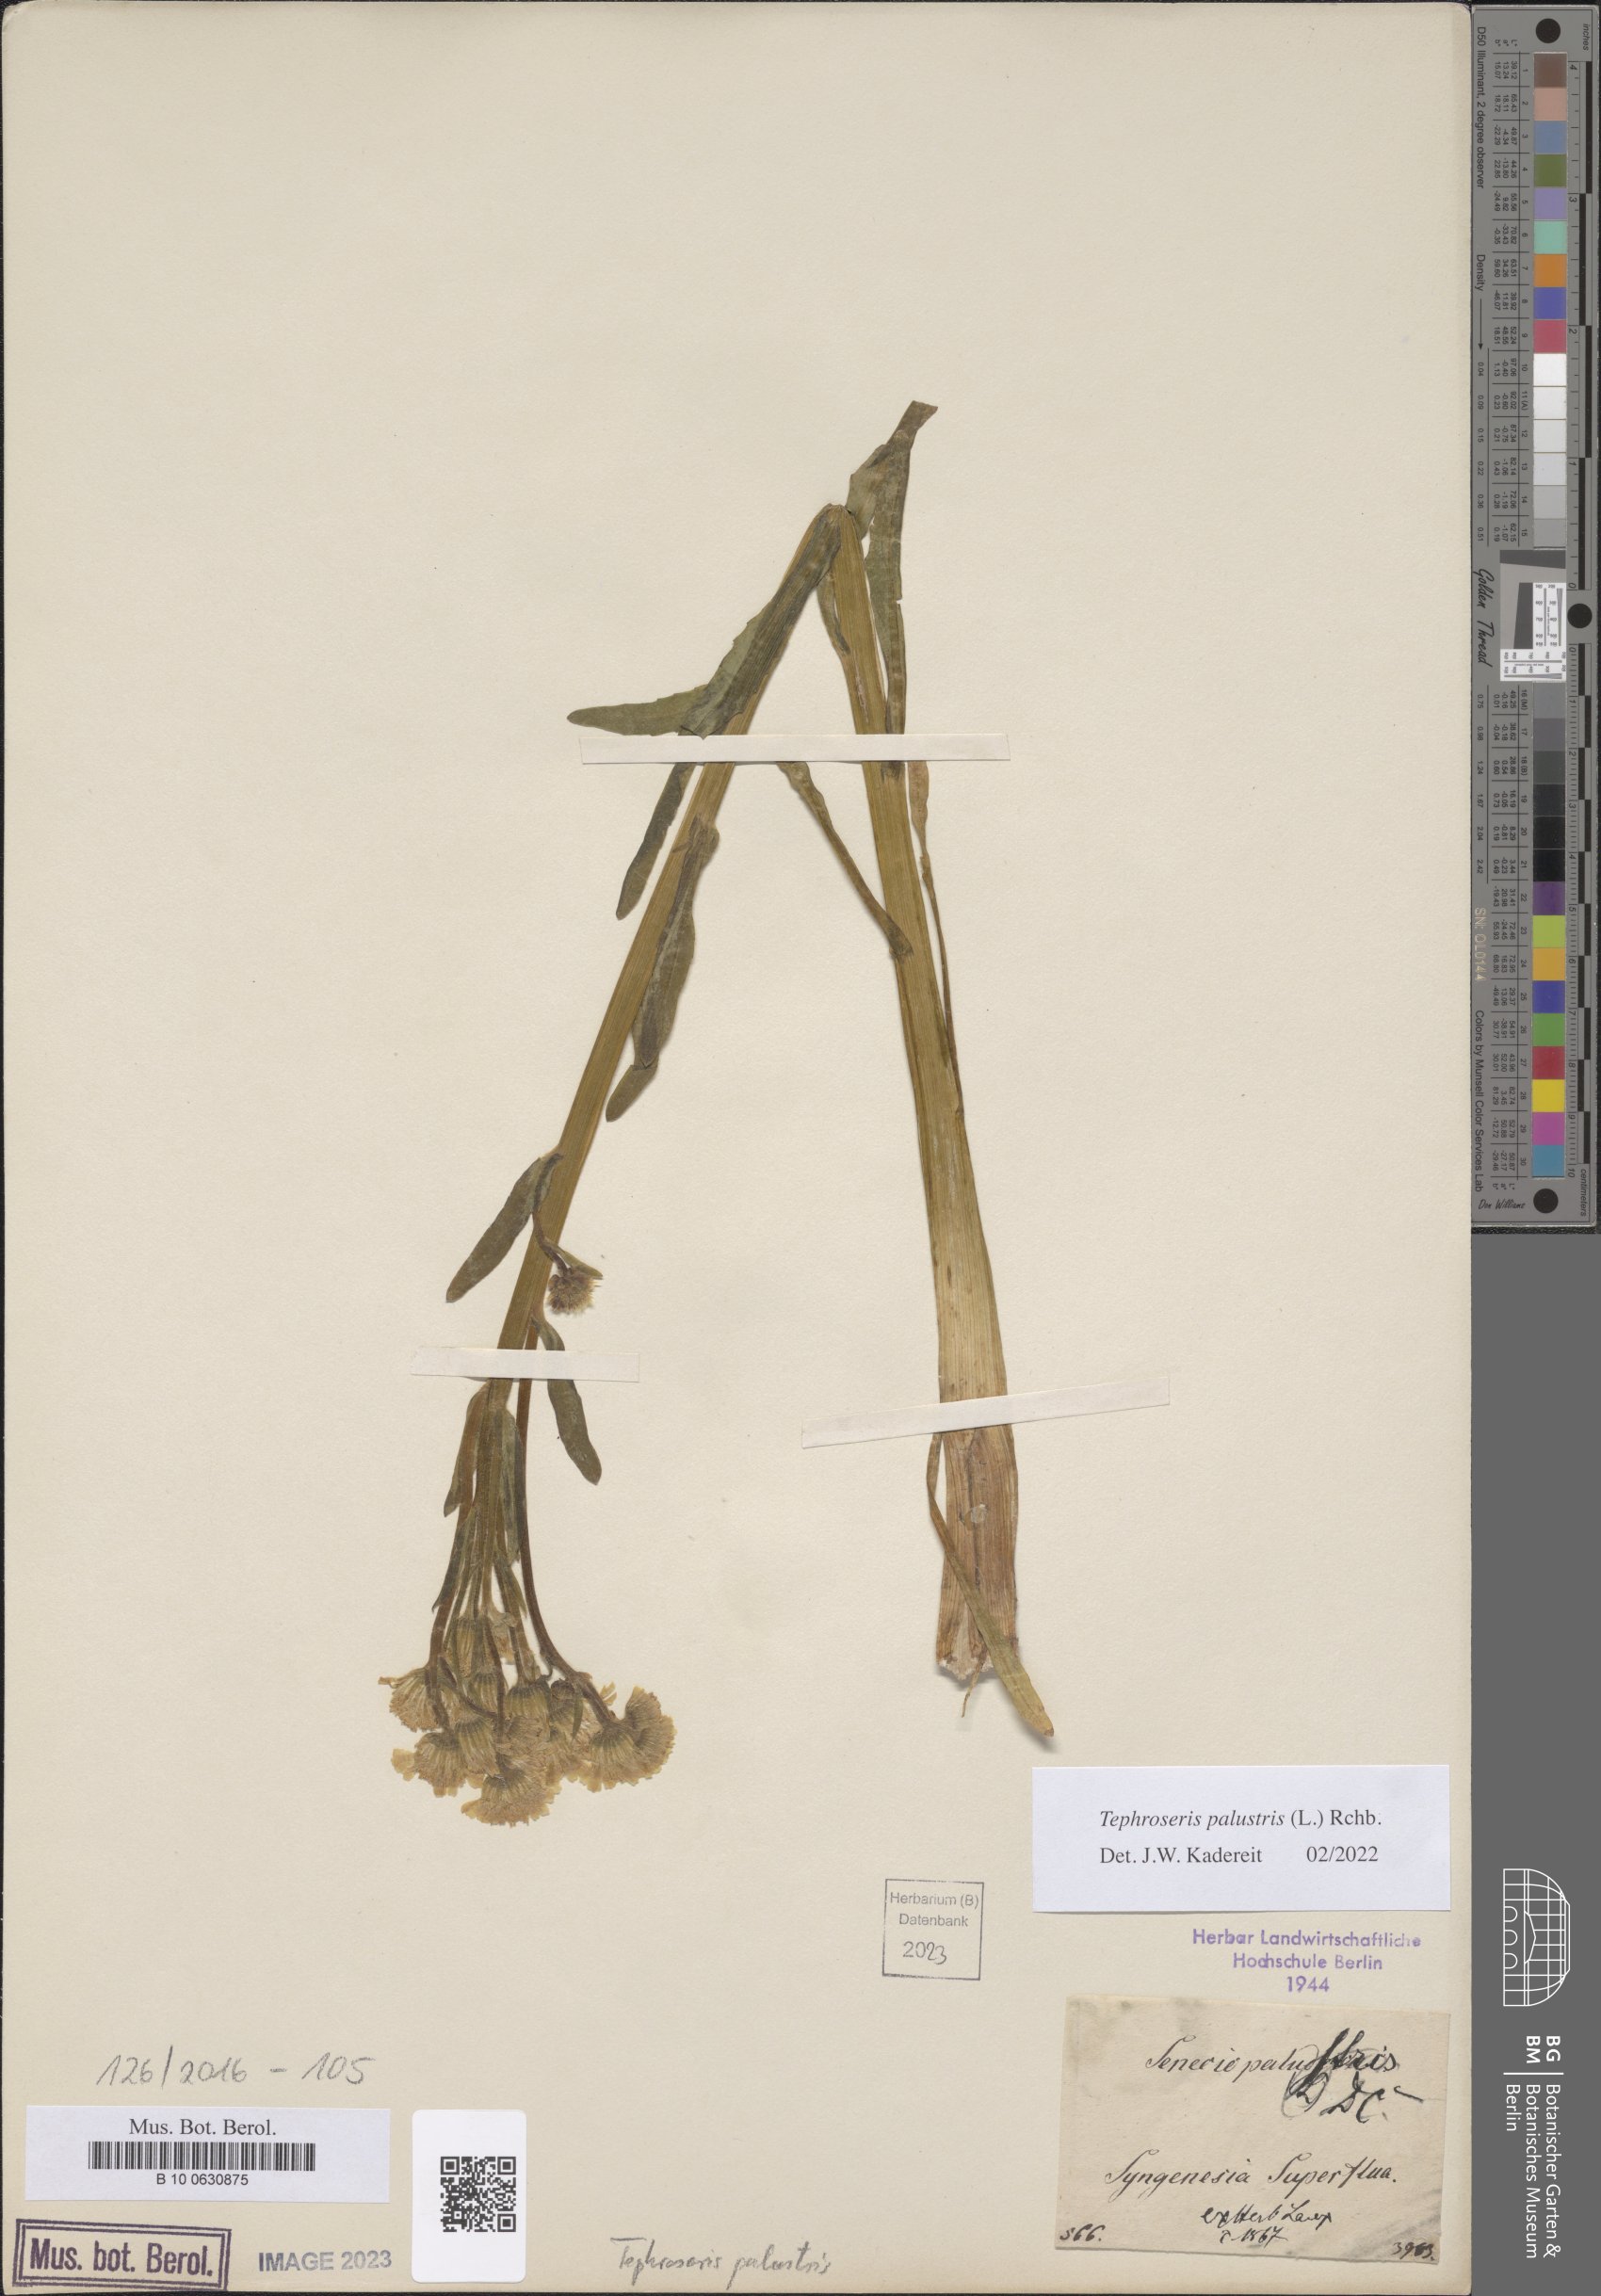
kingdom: Plantae
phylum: Tracheophyta
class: Magnoliopsida
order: Asterales
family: Asteraceae
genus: Tephroseris
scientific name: Tephroseris palustris
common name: Marsh fleawort
